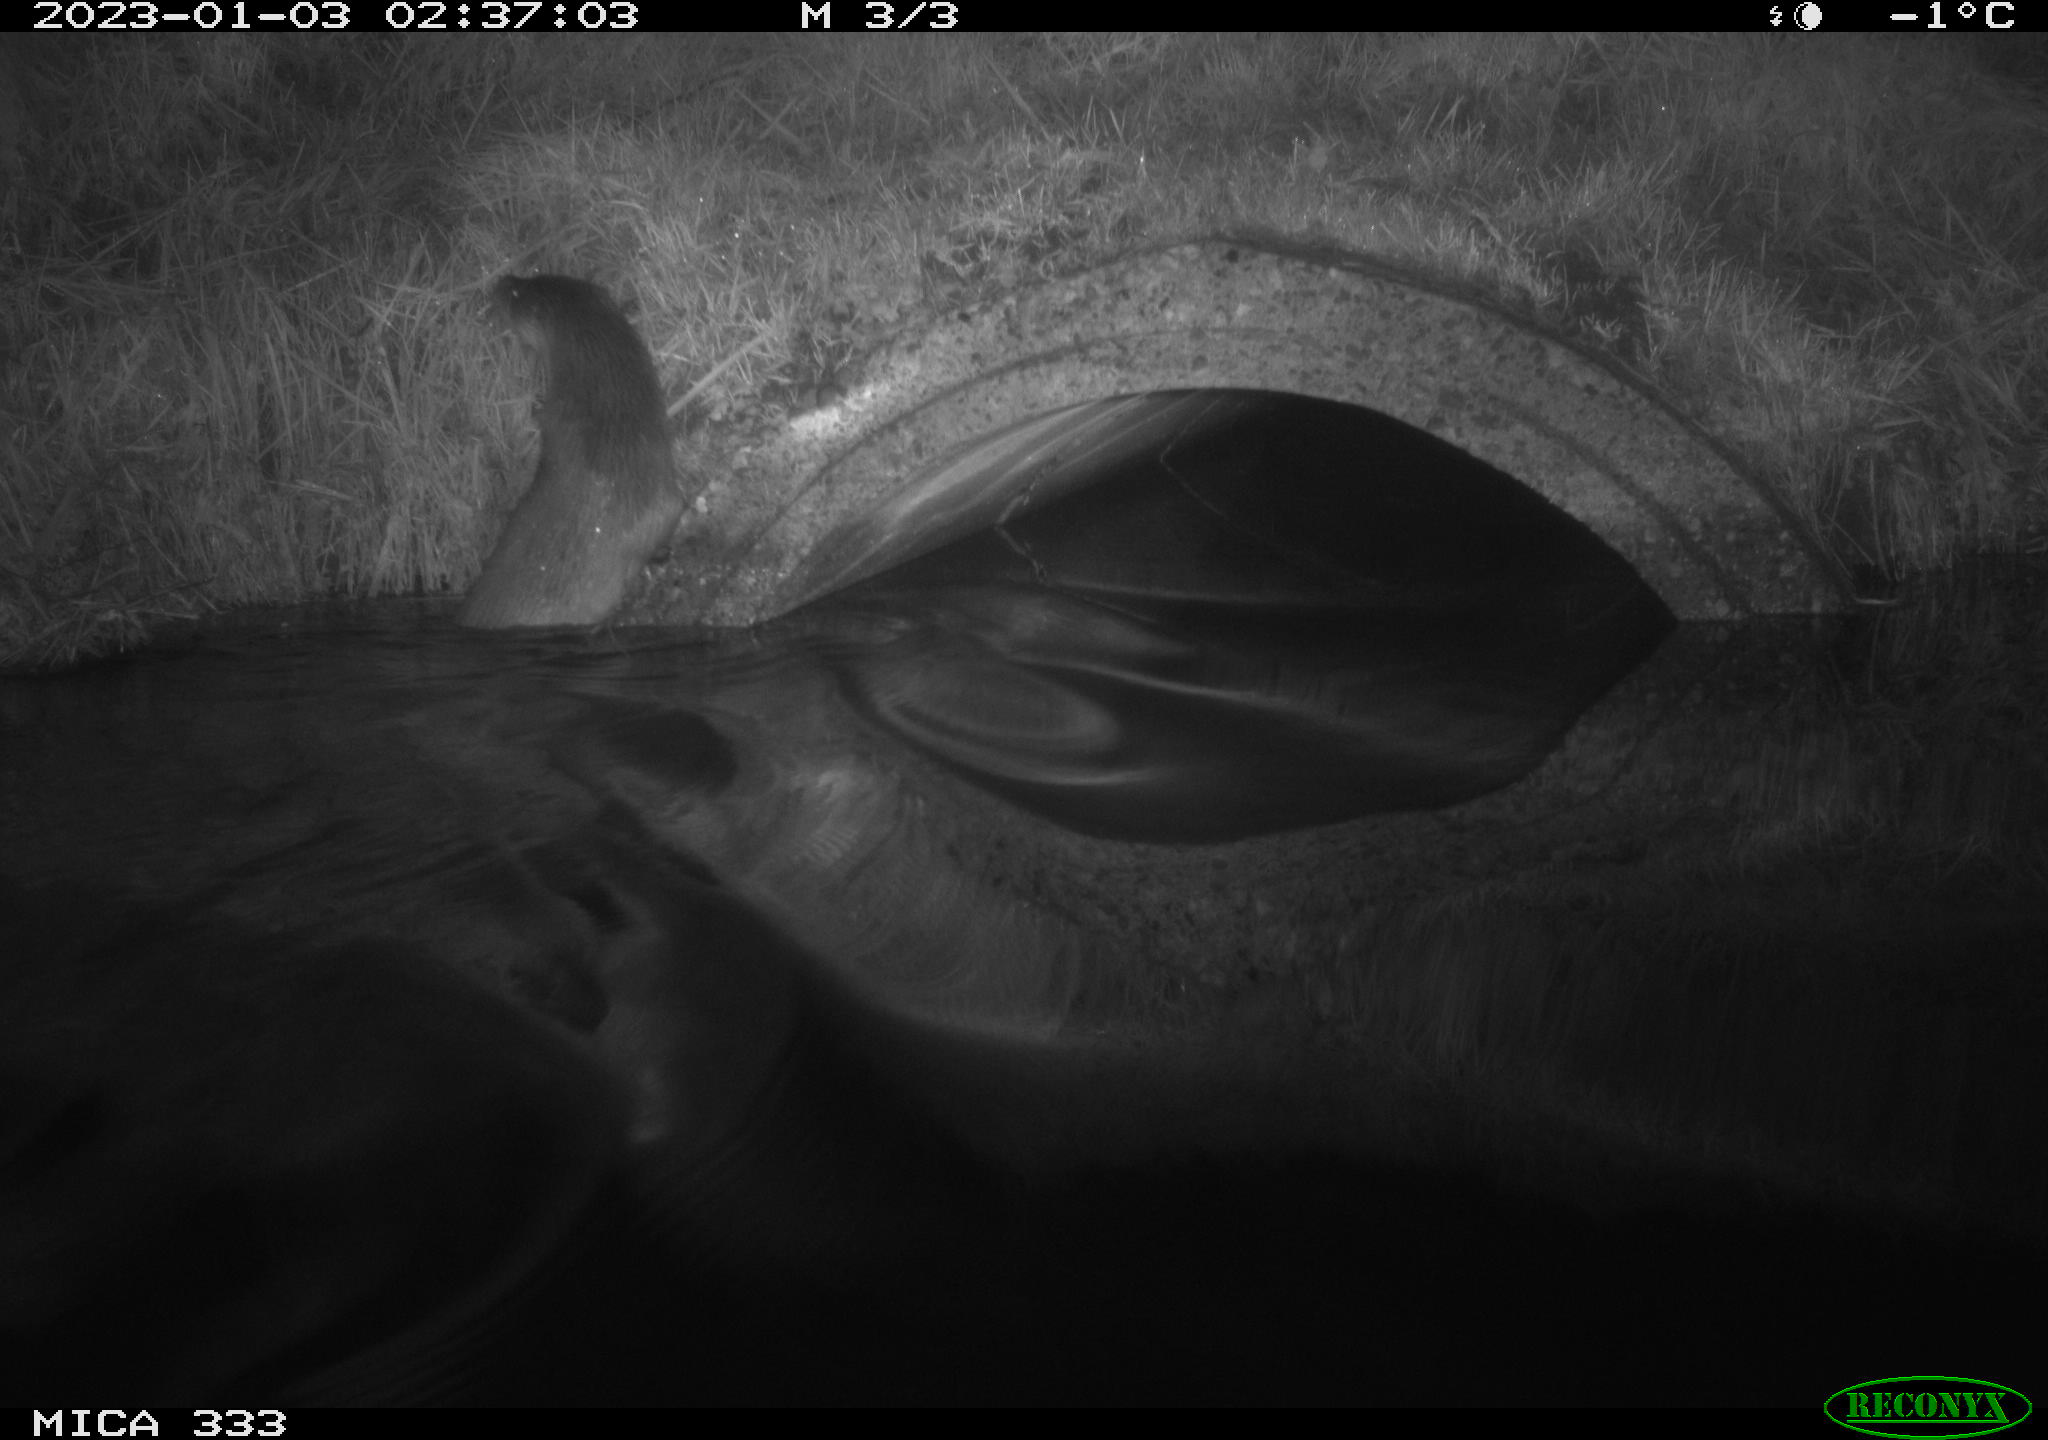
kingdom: Animalia
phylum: Chordata
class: Mammalia
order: Carnivora
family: Mustelidae
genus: Lutra
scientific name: Lutra lutra
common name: European otter
